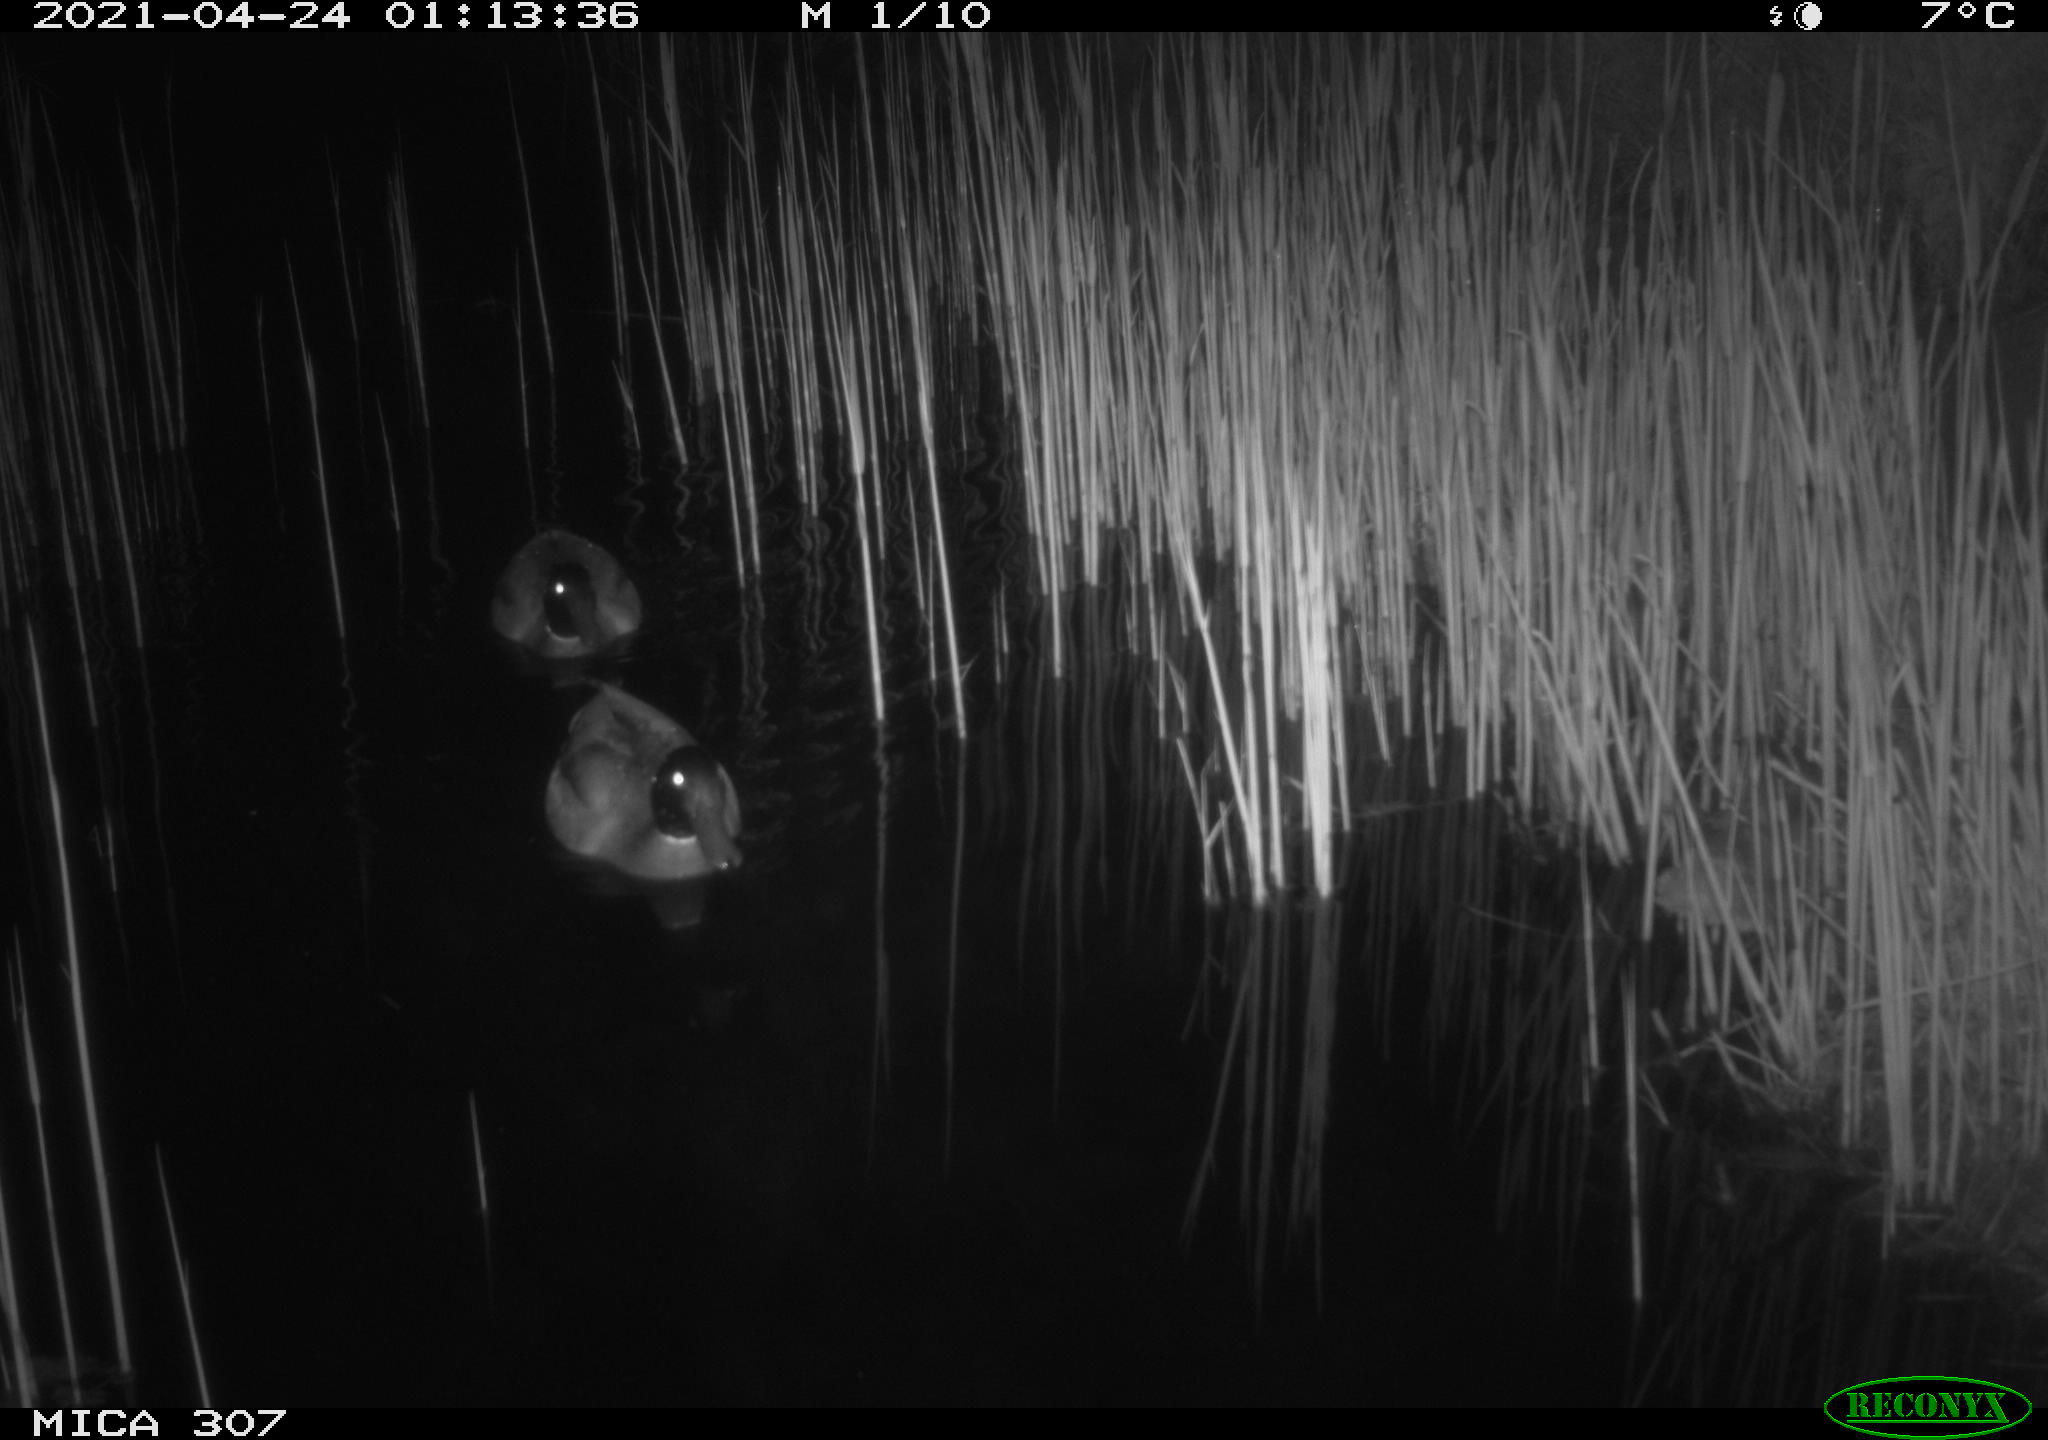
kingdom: Animalia
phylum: Chordata
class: Aves
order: Anseriformes
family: Anatidae
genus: Anas
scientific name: Anas platyrhynchos
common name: Mallard
